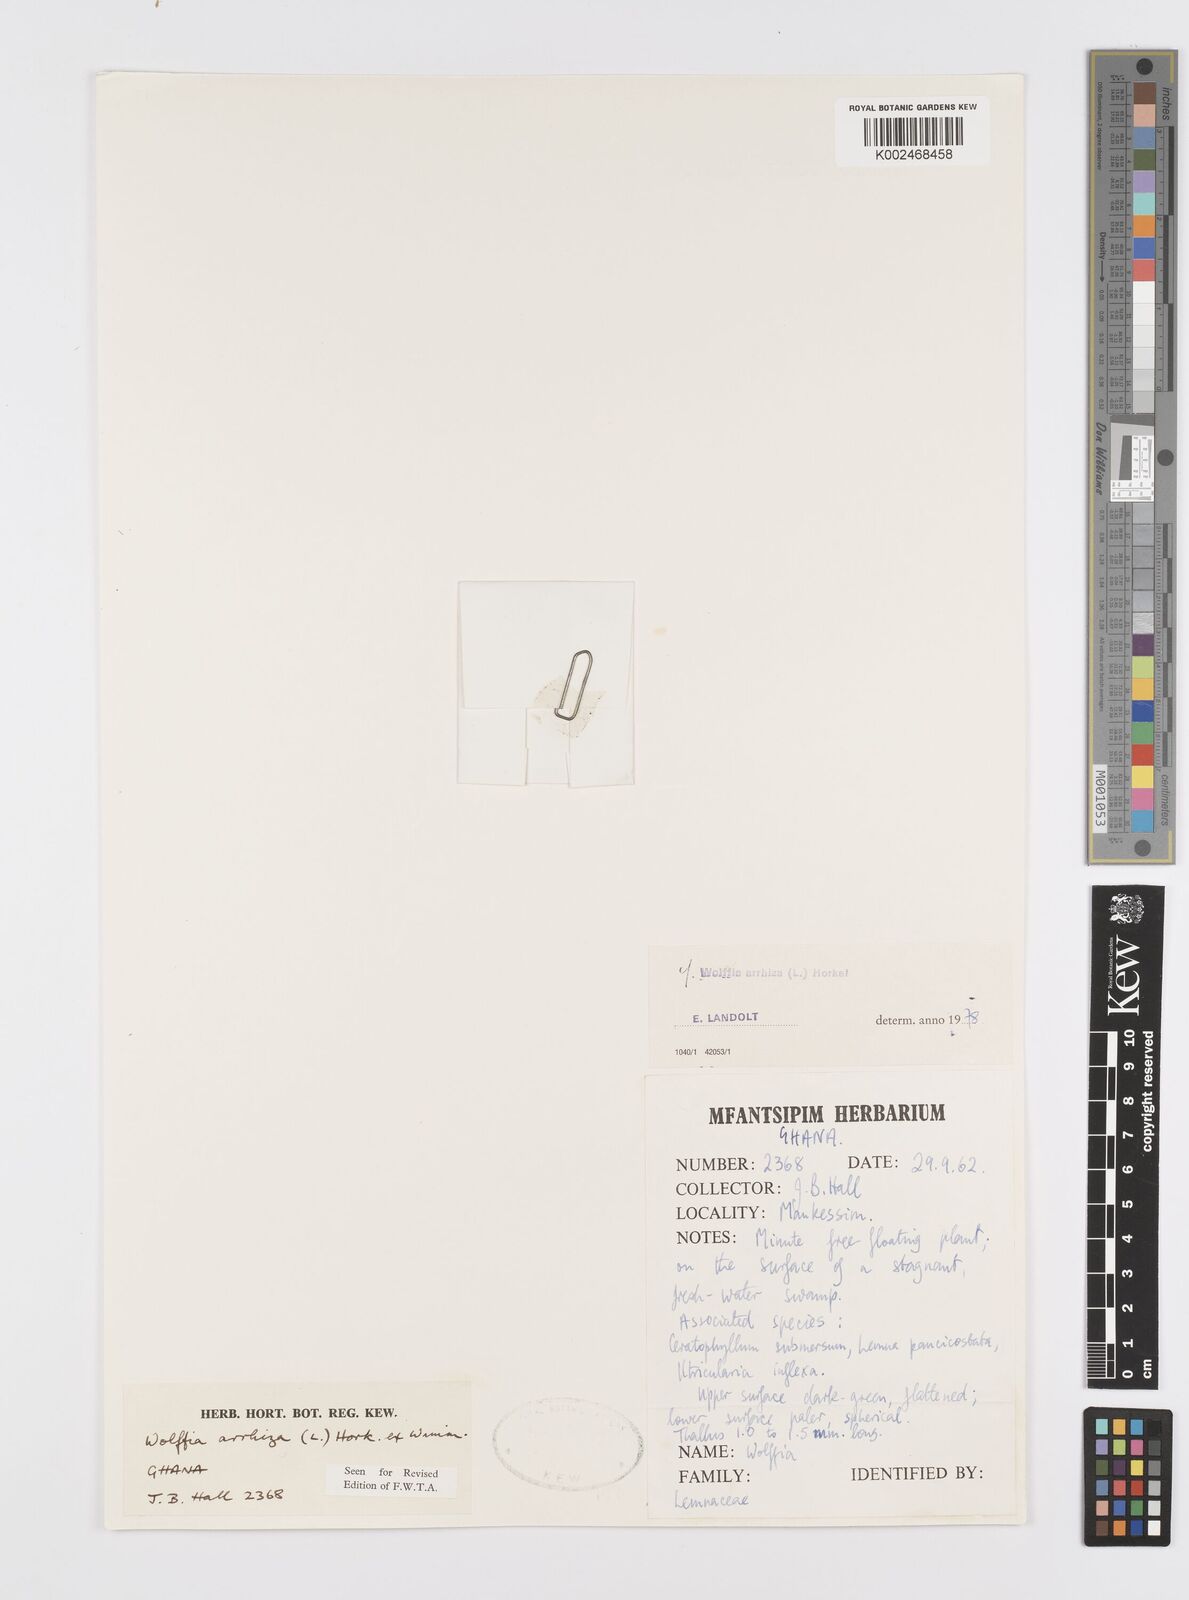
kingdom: Plantae
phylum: Tracheophyta
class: Liliopsida
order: Alismatales
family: Araceae
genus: Wolffia
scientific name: Wolffia arrhiza
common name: Rootless duckweed
